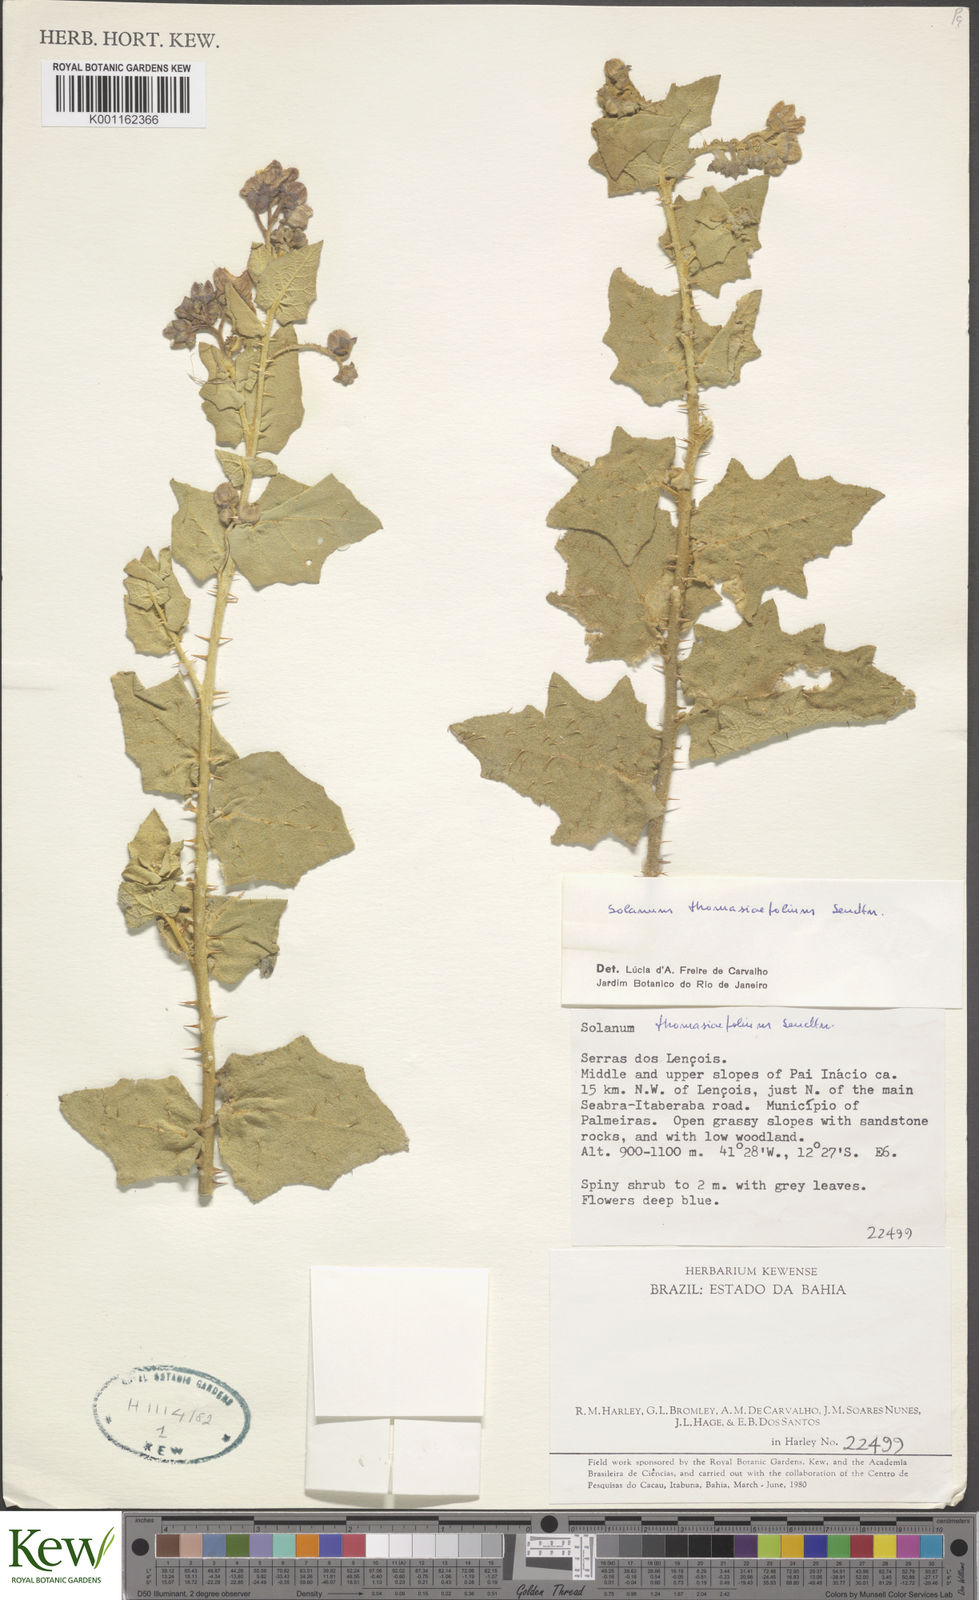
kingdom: Plantae
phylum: Tracheophyta
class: Magnoliopsida
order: Solanales
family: Solanaceae
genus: Solanum
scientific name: Solanum thomasiifolium
